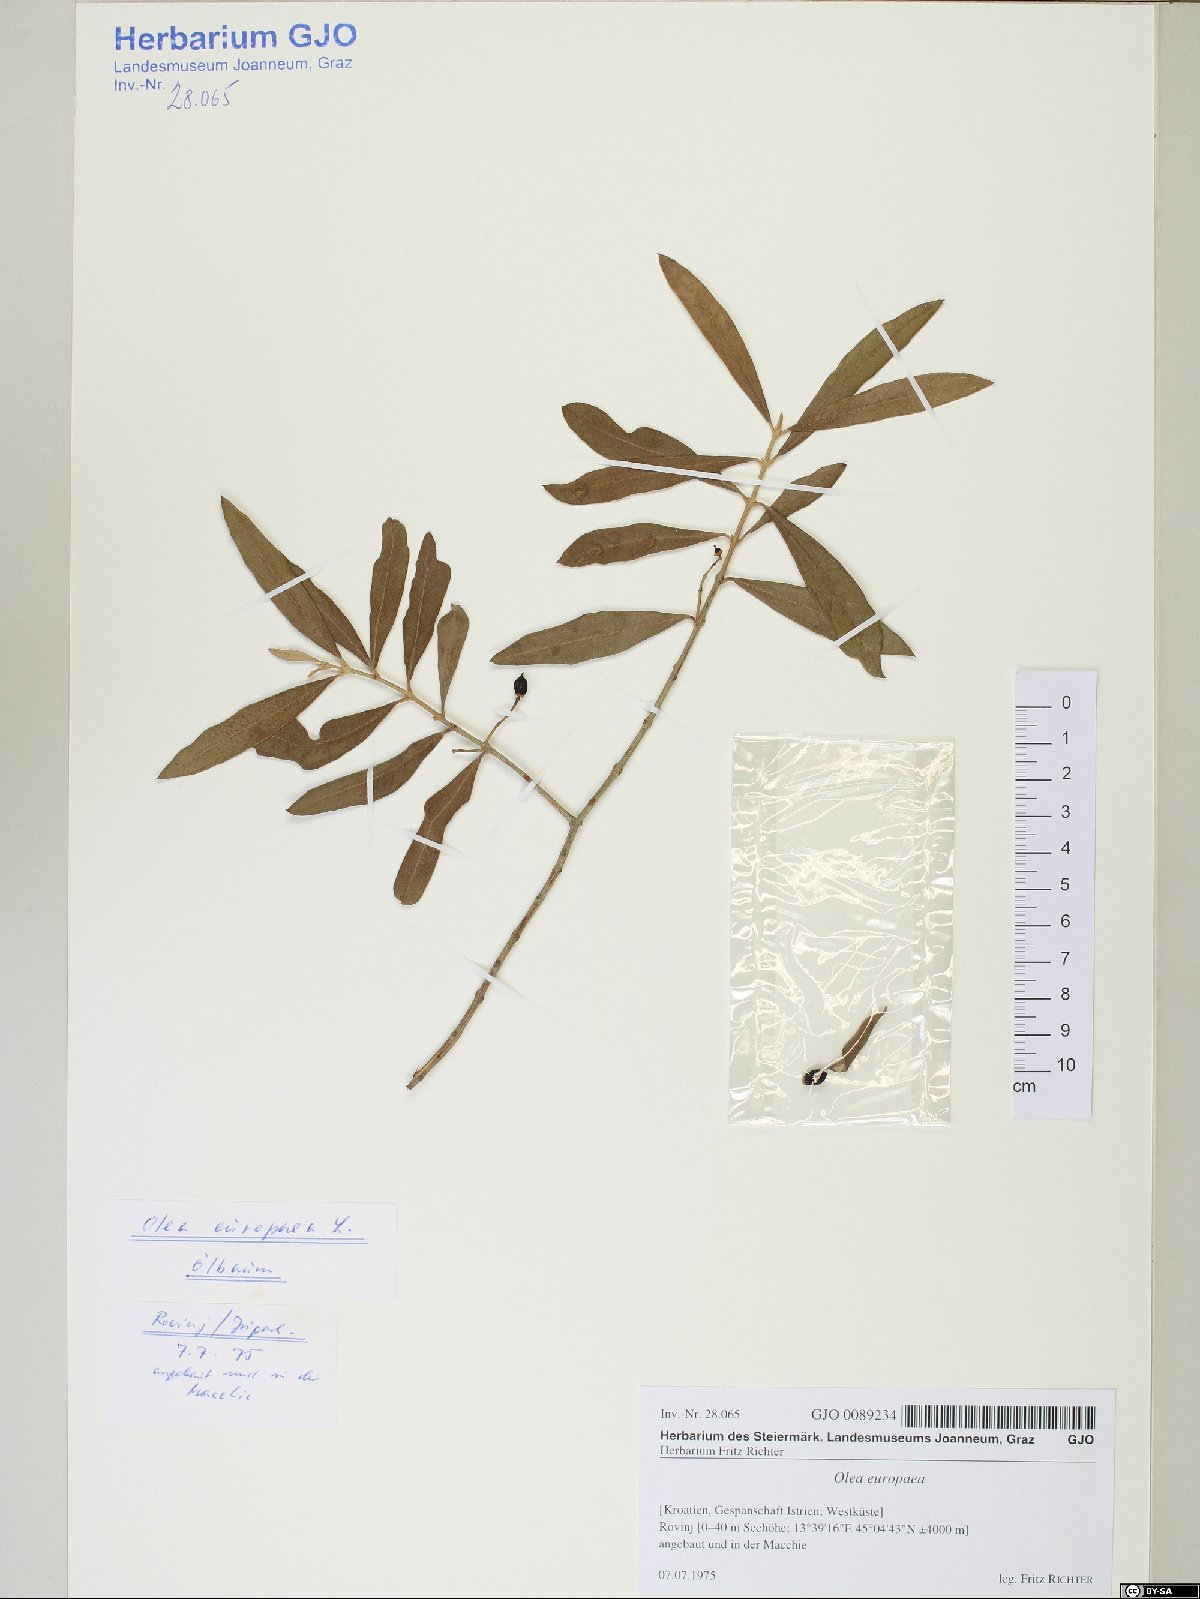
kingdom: Plantae
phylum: Tracheophyta
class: Magnoliopsida
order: Lamiales
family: Oleaceae
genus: Olea
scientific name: Olea europaea
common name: Olive
